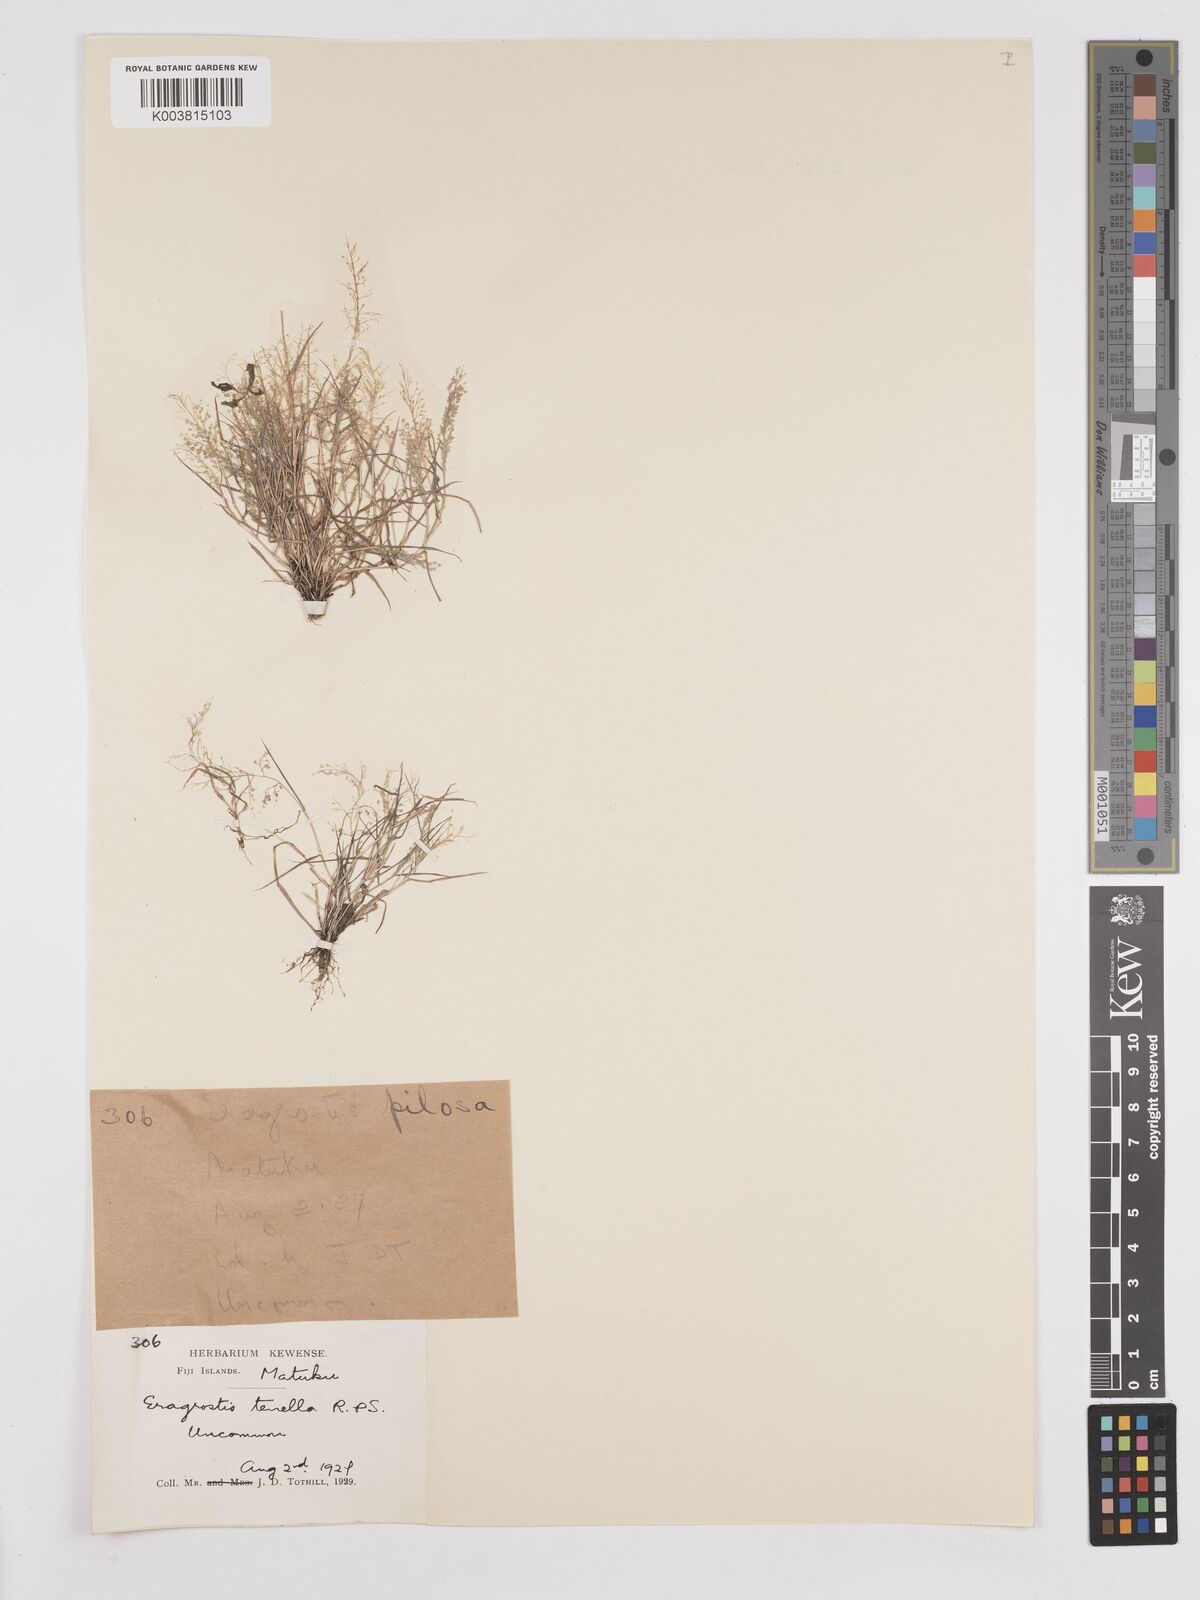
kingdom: Plantae
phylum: Tracheophyta
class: Liliopsida
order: Poales
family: Poaceae
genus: Eragrostis
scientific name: Eragrostis tenella
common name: Japanese lovegrass
